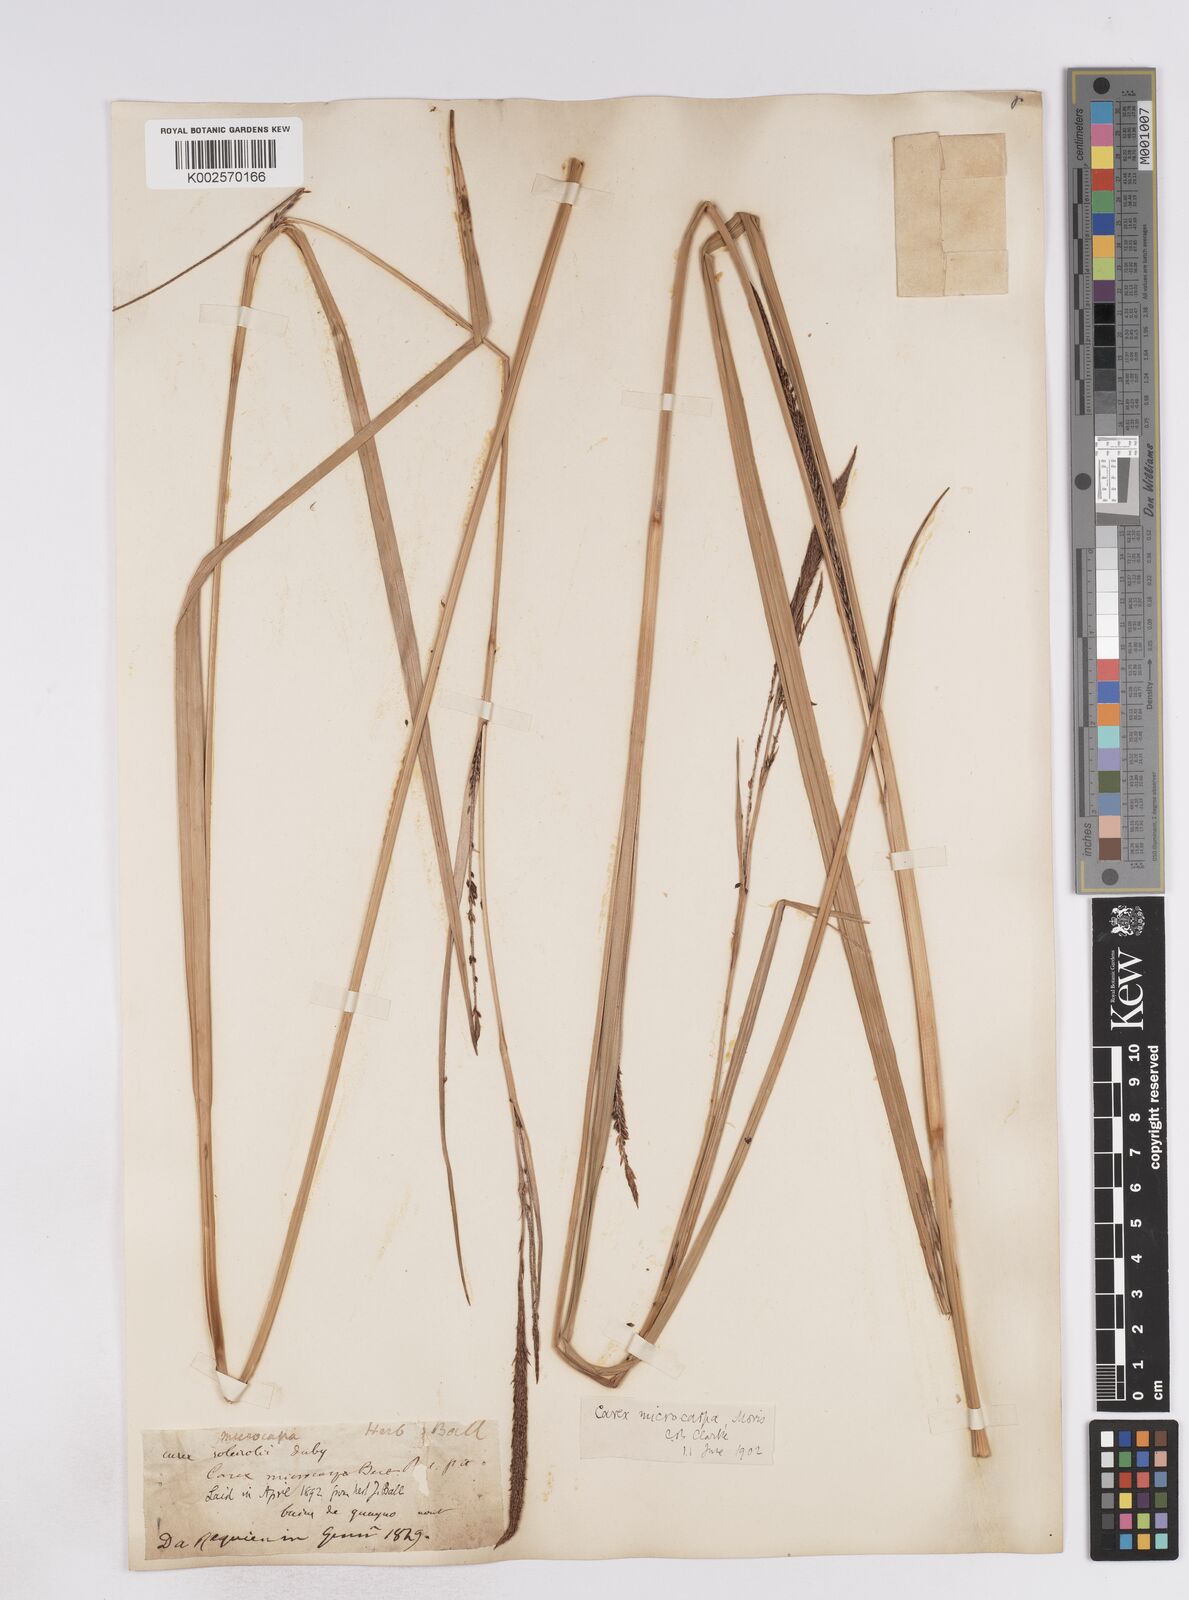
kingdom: Plantae
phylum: Tracheophyta
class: Liliopsida
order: Poales
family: Cyperaceae
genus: Carex
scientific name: Carex microcarpa
